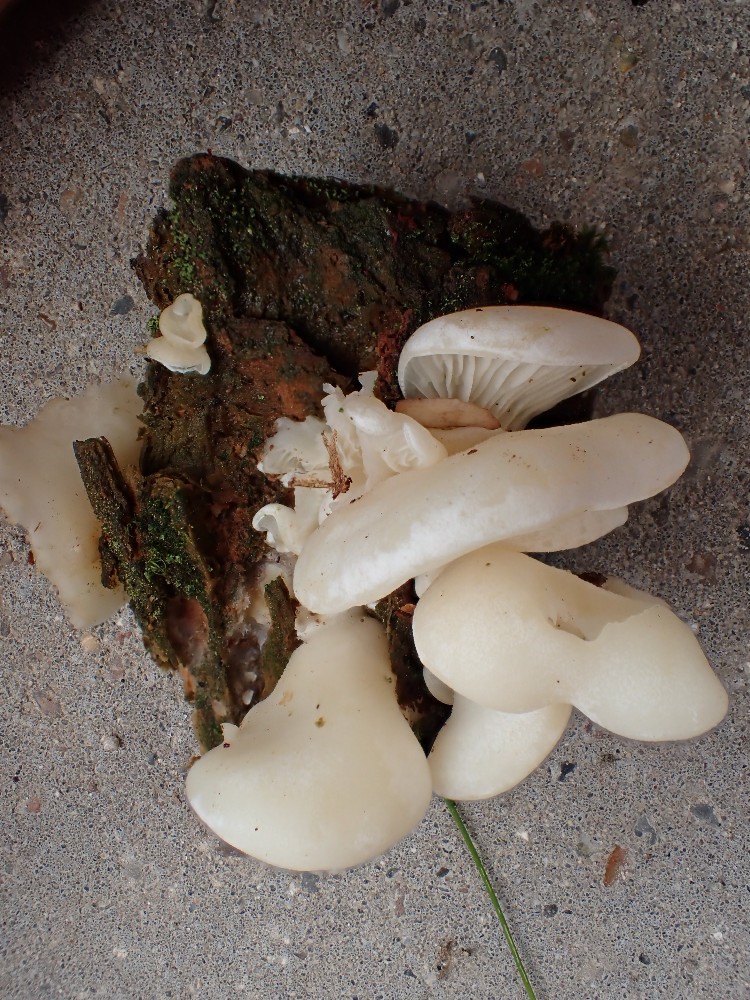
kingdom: Fungi
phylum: Basidiomycota
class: Agaricomycetes
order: Agaricales
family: Marasmiaceae
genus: Pleurocybella
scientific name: Pleurocybella porrigens
